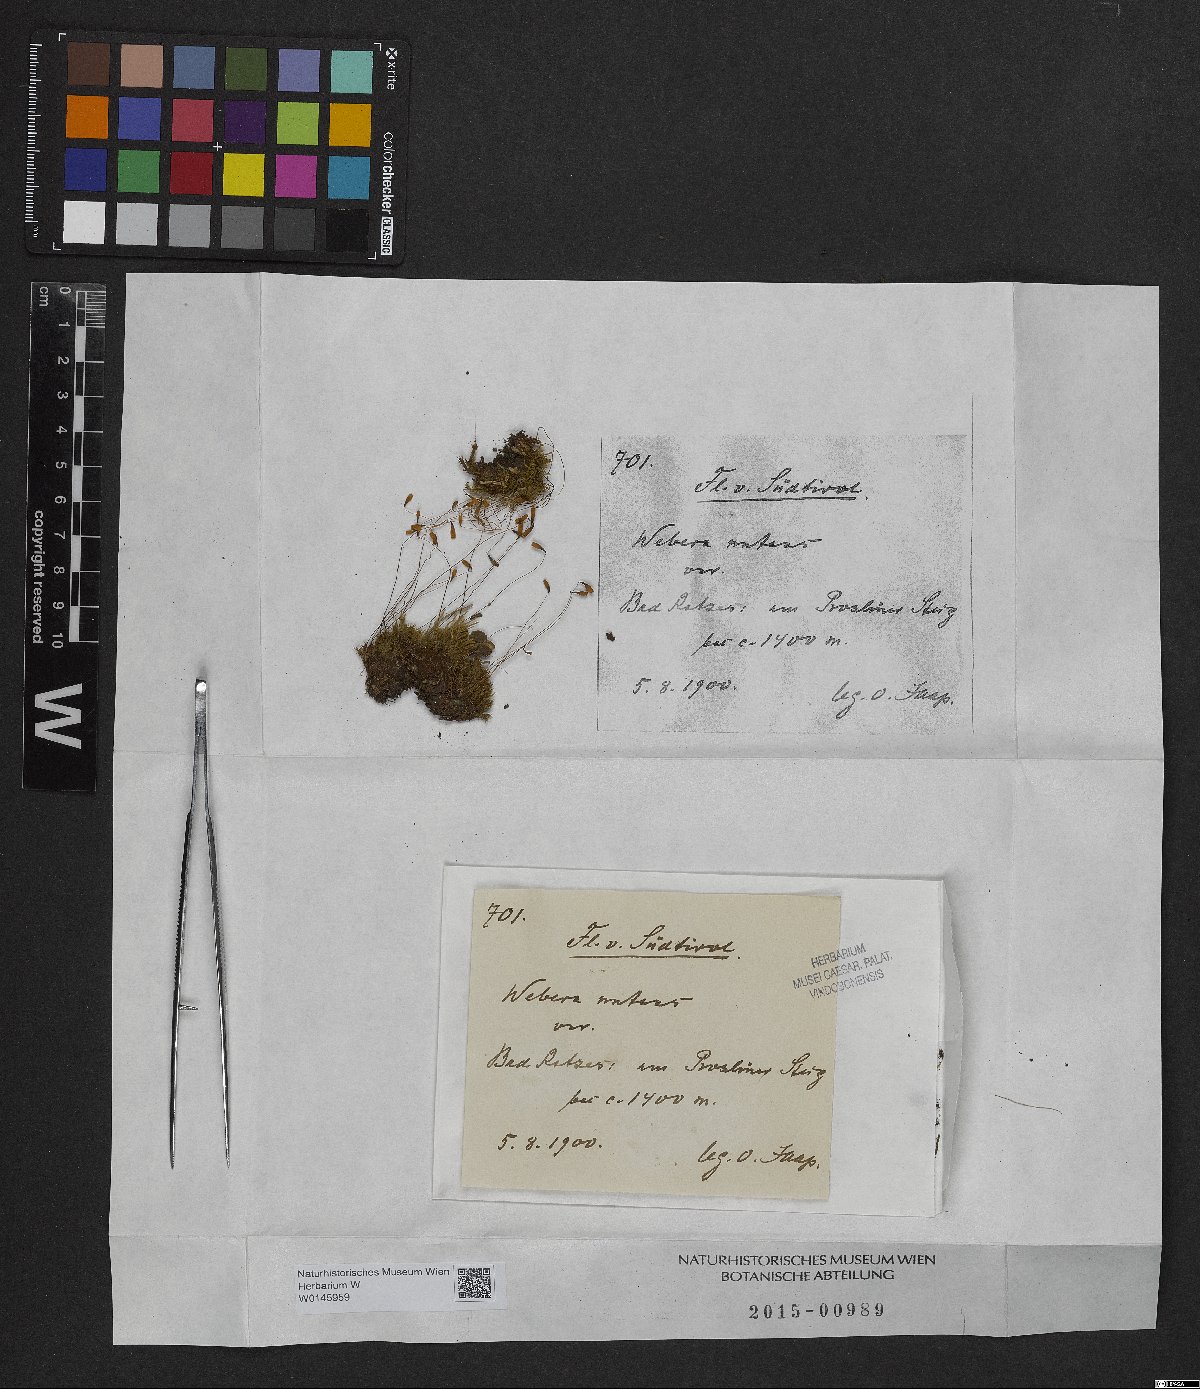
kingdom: Plantae
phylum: Bryophyta
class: Bryopsida
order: Bryales
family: Mniaceae
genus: Pohlia
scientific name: Pohlia nutans
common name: Nodding thread-moss
